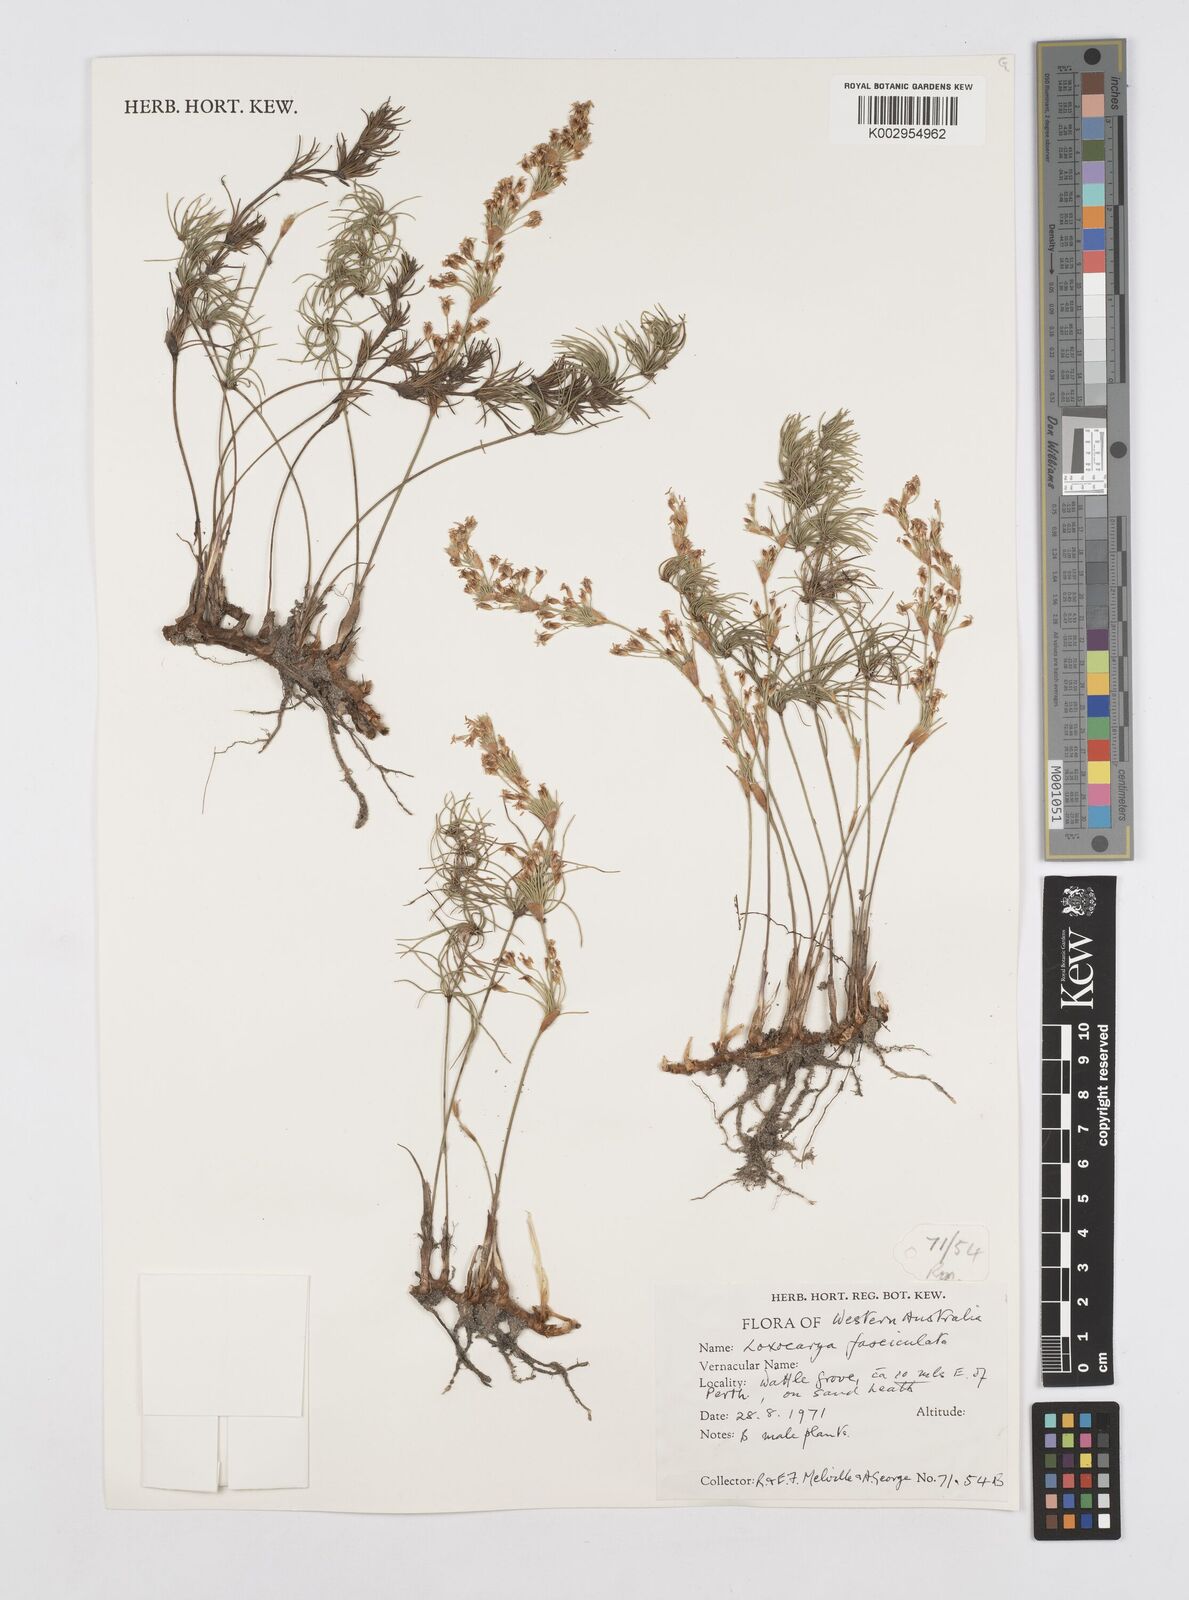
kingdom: Plantae
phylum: Tracheophyta
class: Liliopsida
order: Poales
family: Restionaceae
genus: Desmocladus
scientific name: Desmocladus fasciculatus
